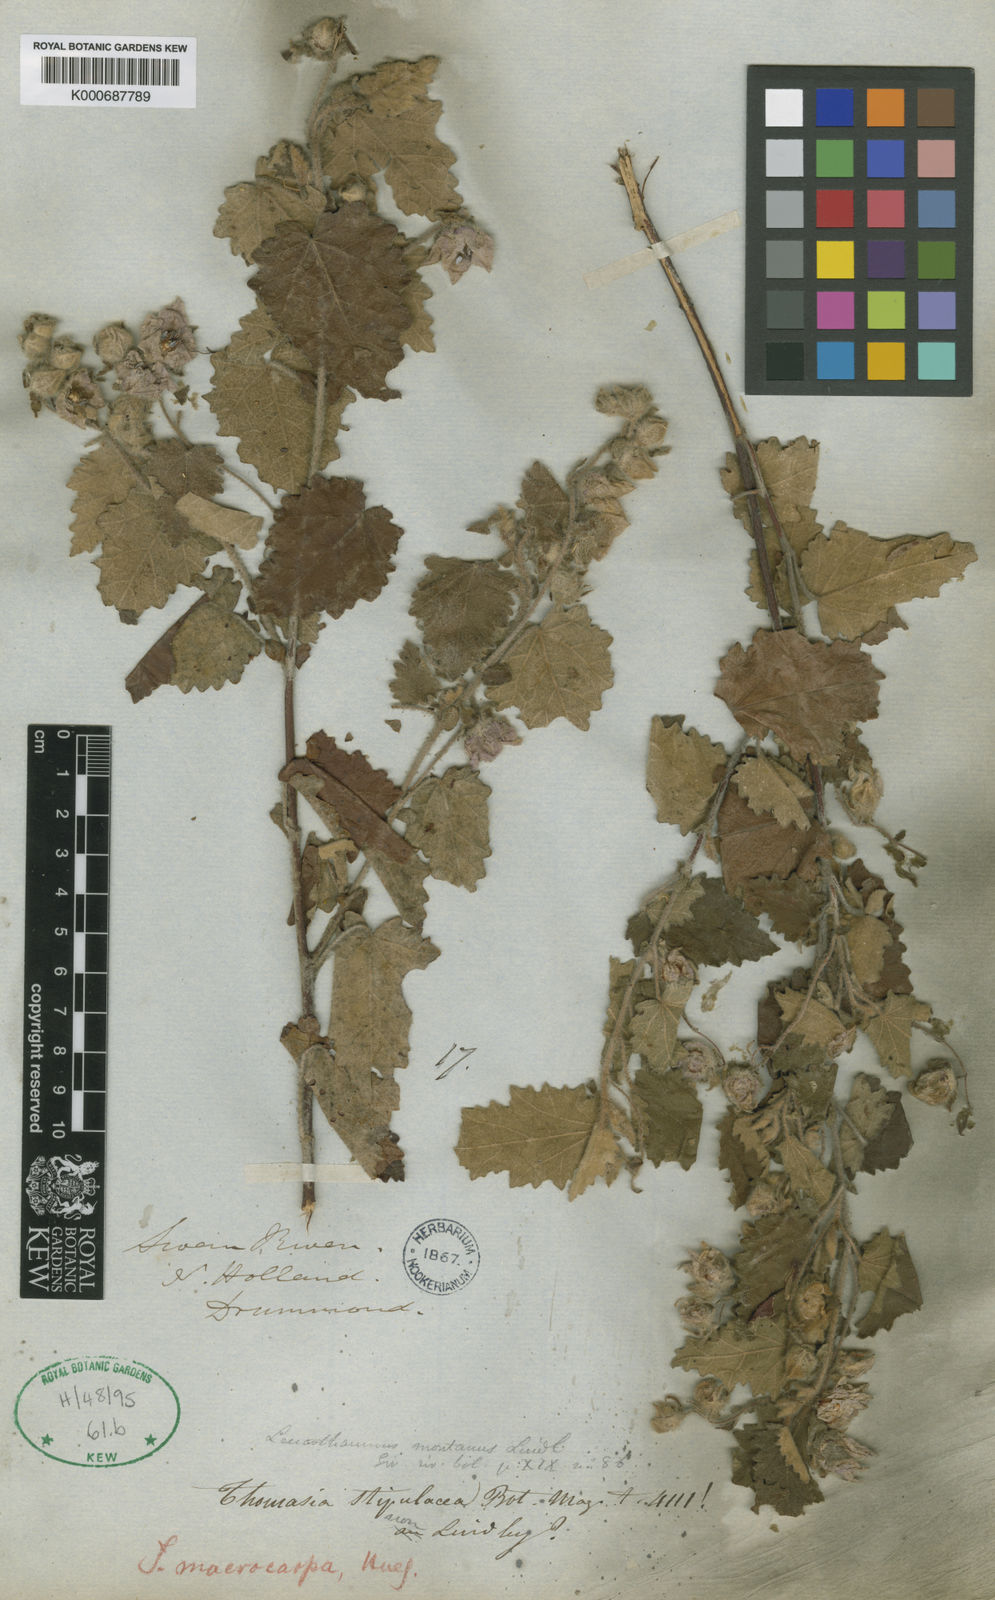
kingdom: Plantae
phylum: Tracheophyta
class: Magnoliopsida
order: Malvales
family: Malvaceae
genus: Thomasia
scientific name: Thomasia
